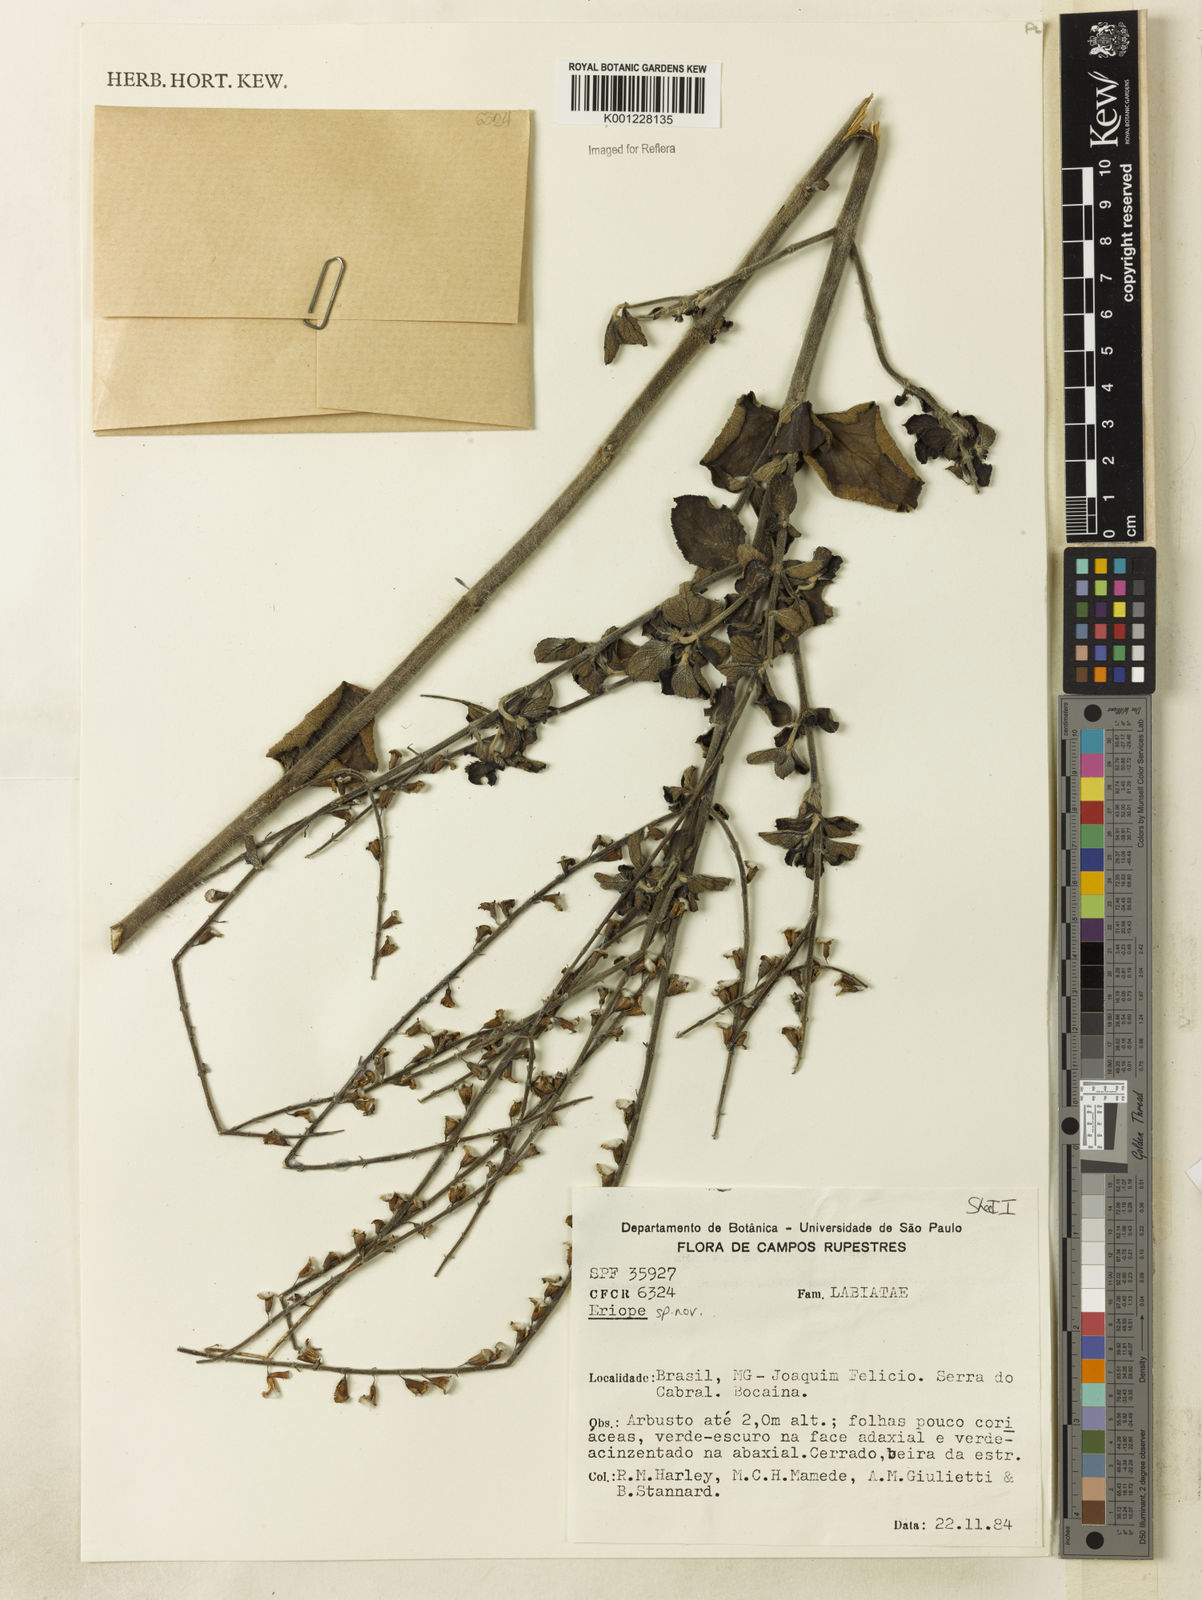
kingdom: Plantae
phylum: Tracheophyta
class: Magnoliopsida
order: Lamiales
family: Lamiaceae
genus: Eriope
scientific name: Eriope
